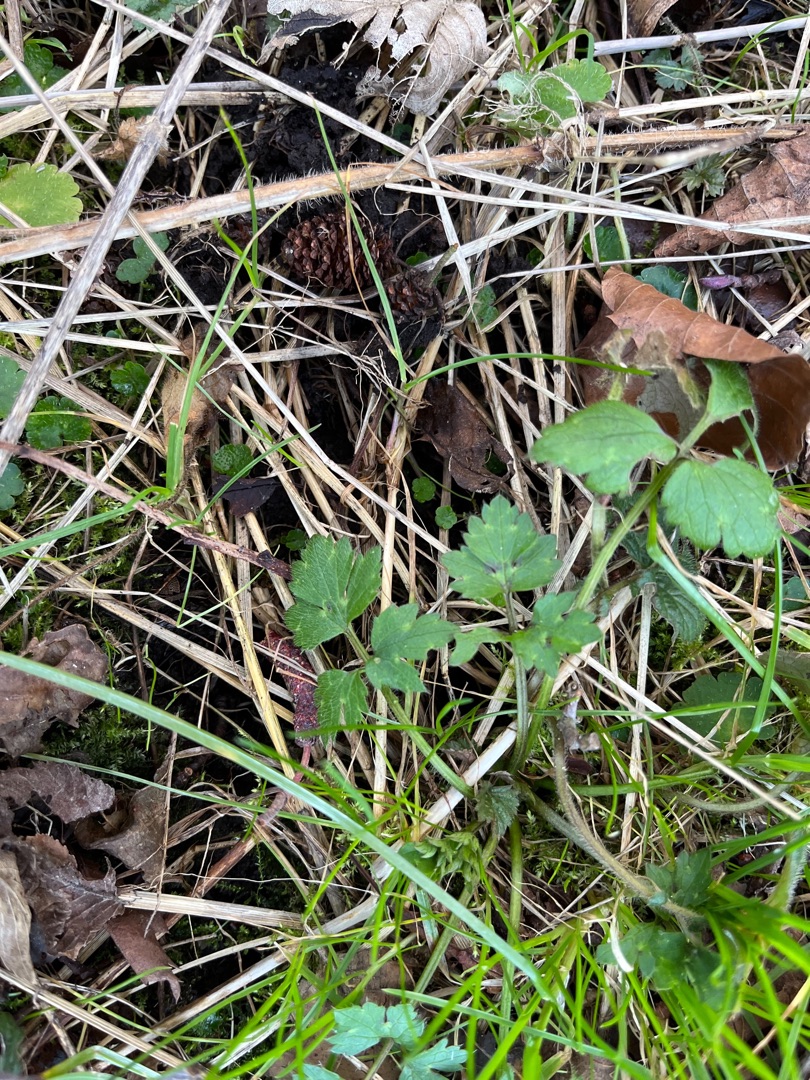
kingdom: Plantae
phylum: Tracheophyta
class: Magnoliopsida
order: Ranunculales
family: Ranunculaceae
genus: Ranunculus
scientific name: Ranunculus repens
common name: Lav ranunkel
